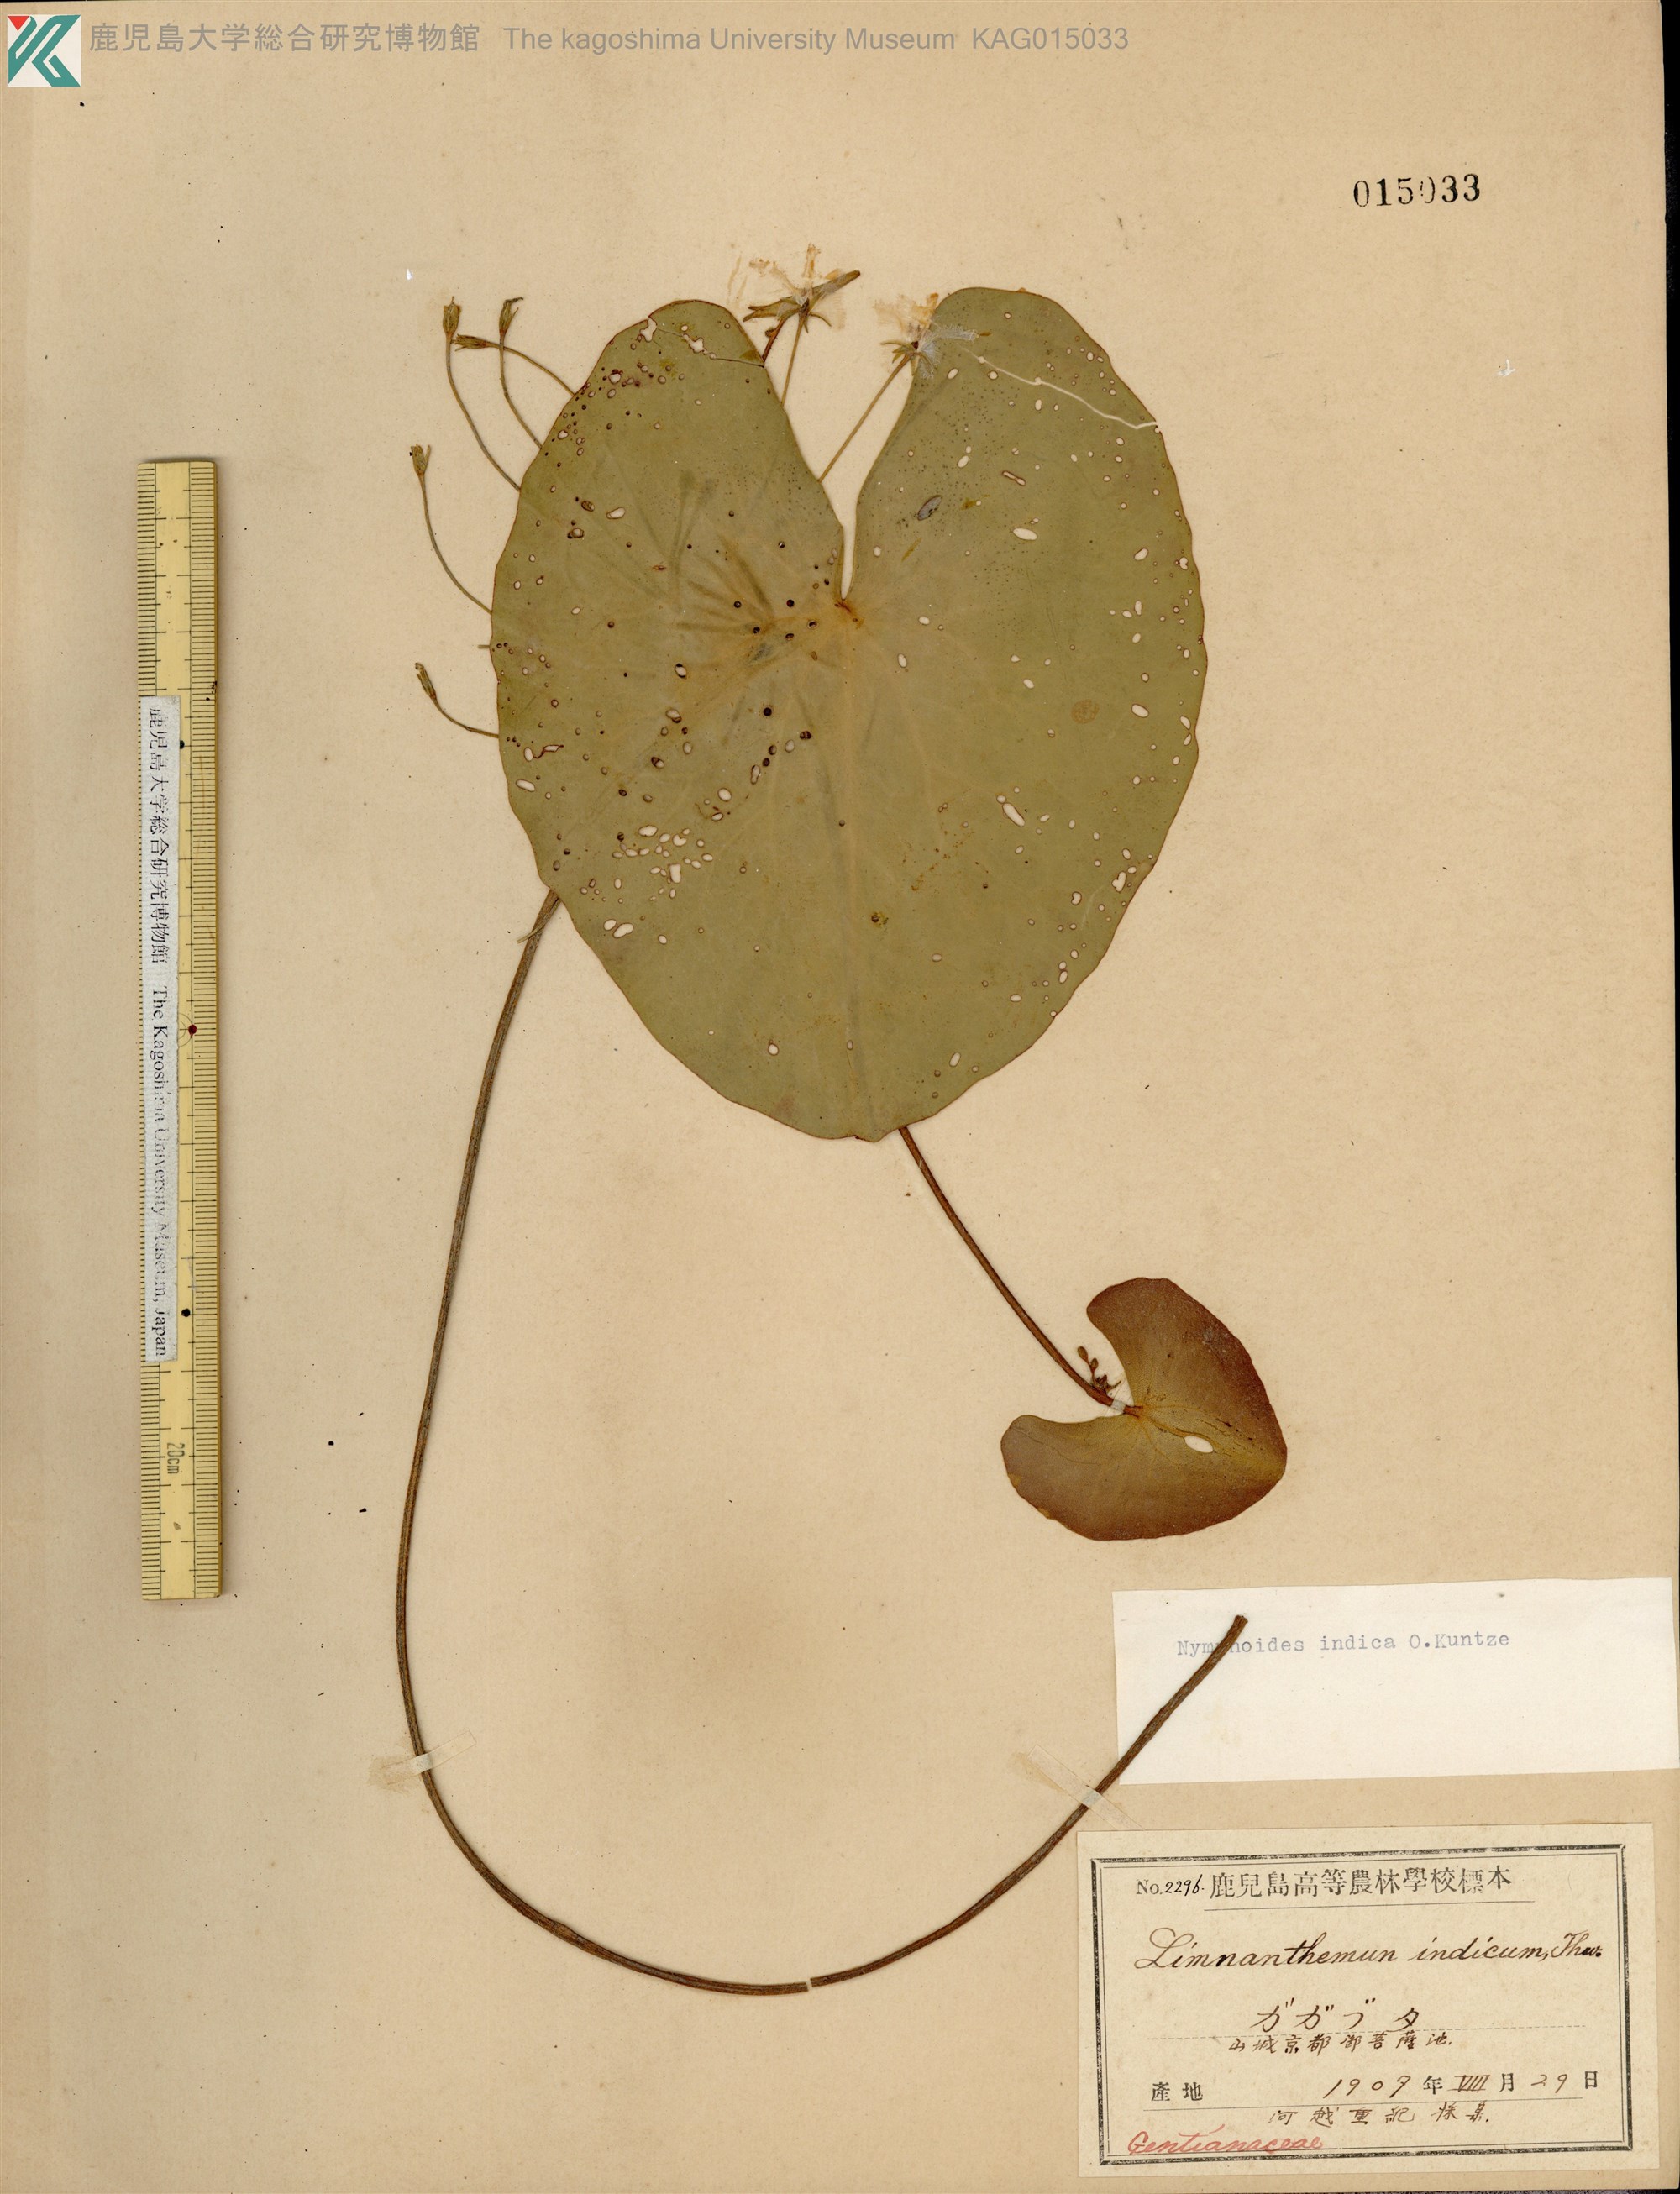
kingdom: Plantae
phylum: Tracheophyta
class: Magnoliopsida
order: Asterales
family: Menyanthaceae
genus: Nymphoides
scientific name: Nymphoides indica
